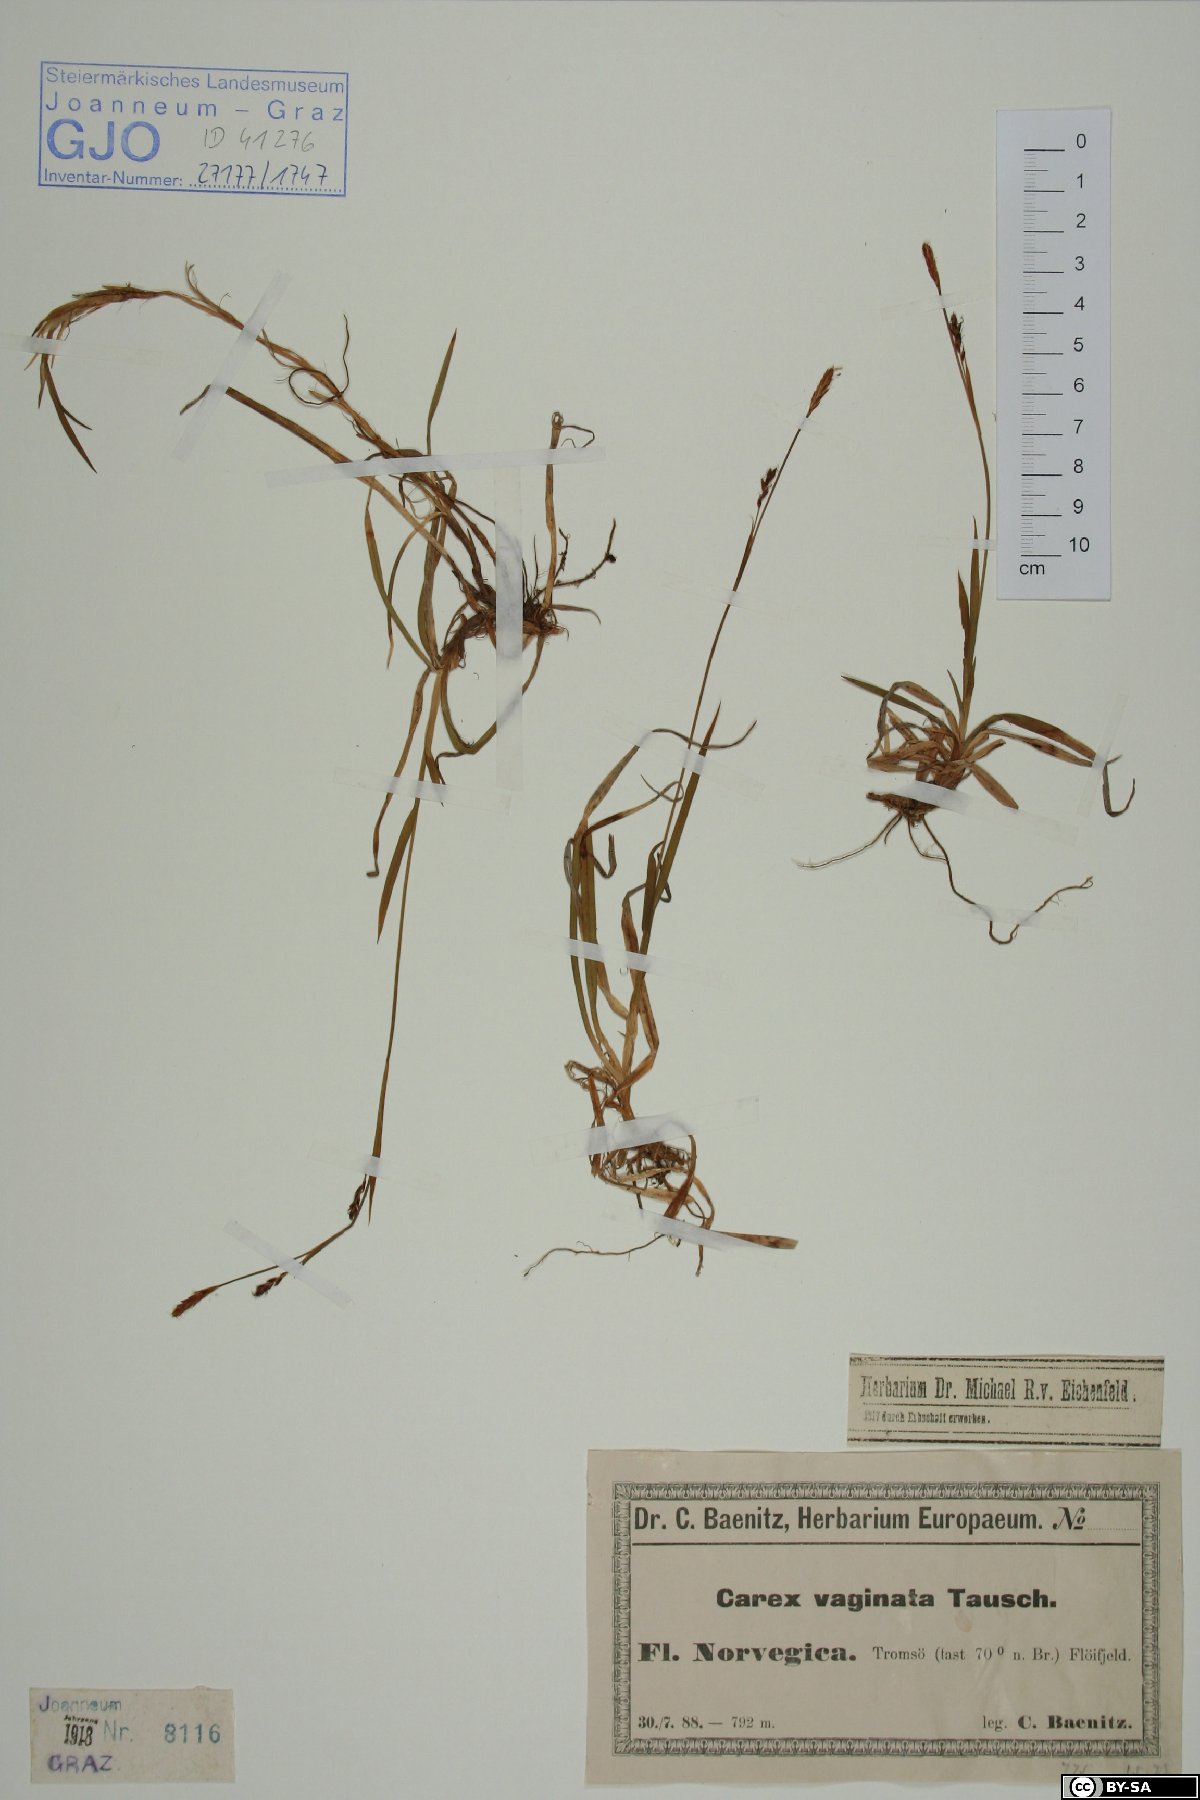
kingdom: Plantae
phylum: Tracheophyta
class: Liliopsida
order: Poales
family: Cyperaceae
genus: Carex
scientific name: Carex vaginata
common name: Sheathed sedge
